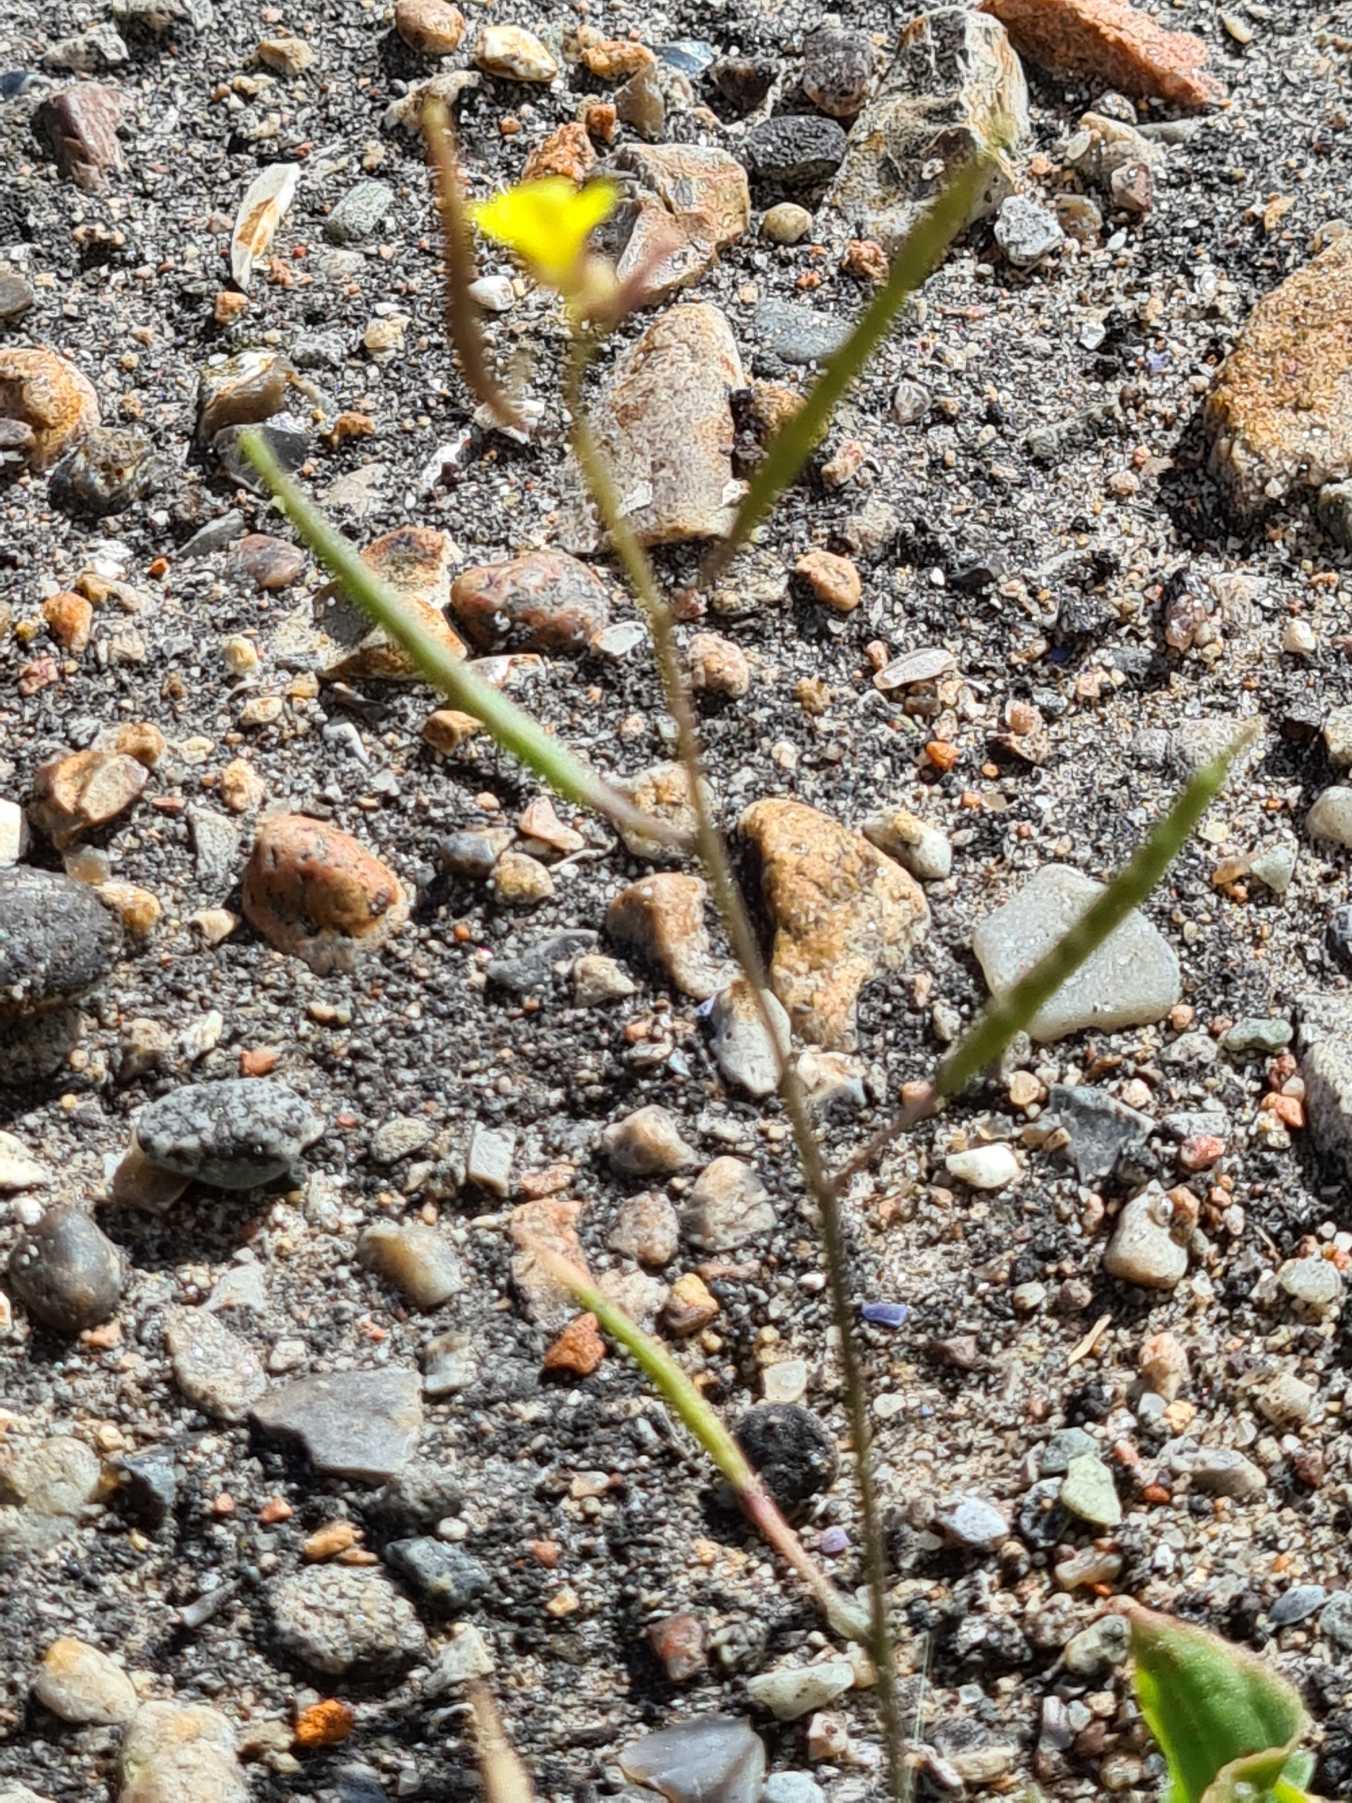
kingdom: Plantae
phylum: Tracheophyta
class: Magnoliopsida
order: Brassicales
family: Brassicaceae
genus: Diplotaxis
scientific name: Diplotaxis muralis
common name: Mursennep
